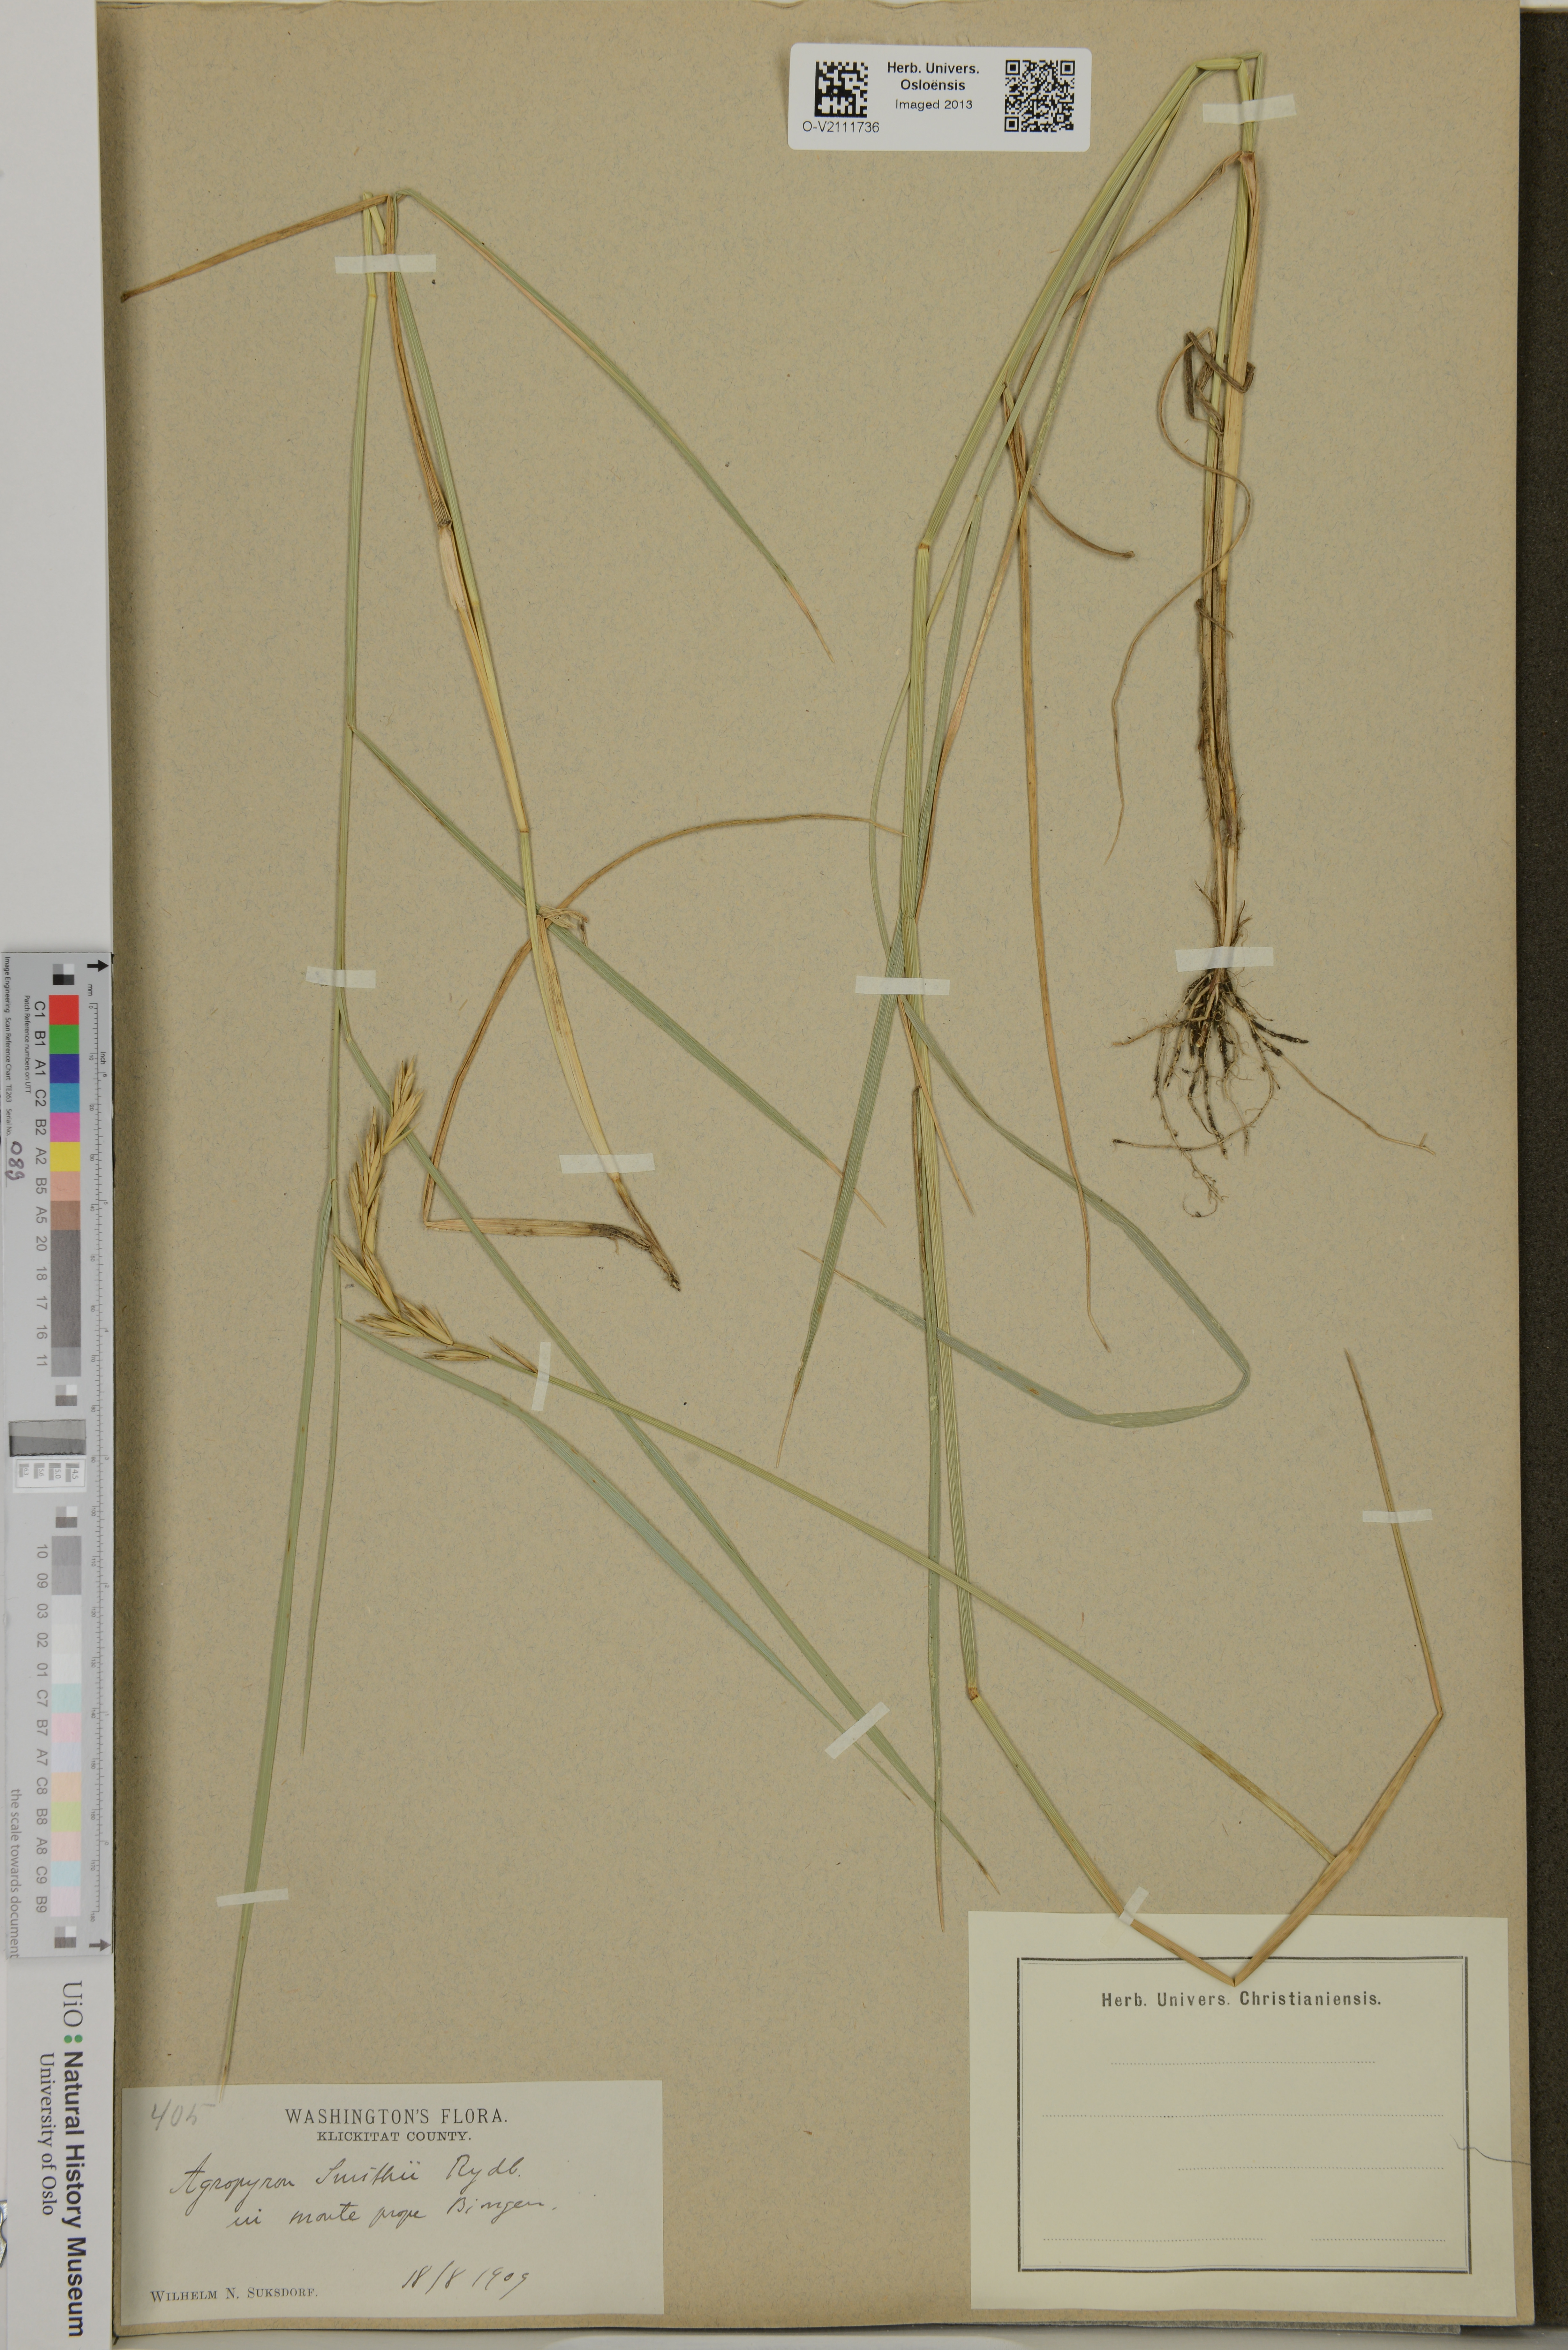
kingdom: Plantae
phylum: Tracheophyta
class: Liliopsida
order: Poales
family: Poaceae
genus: Elymus
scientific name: Elymus smithii
